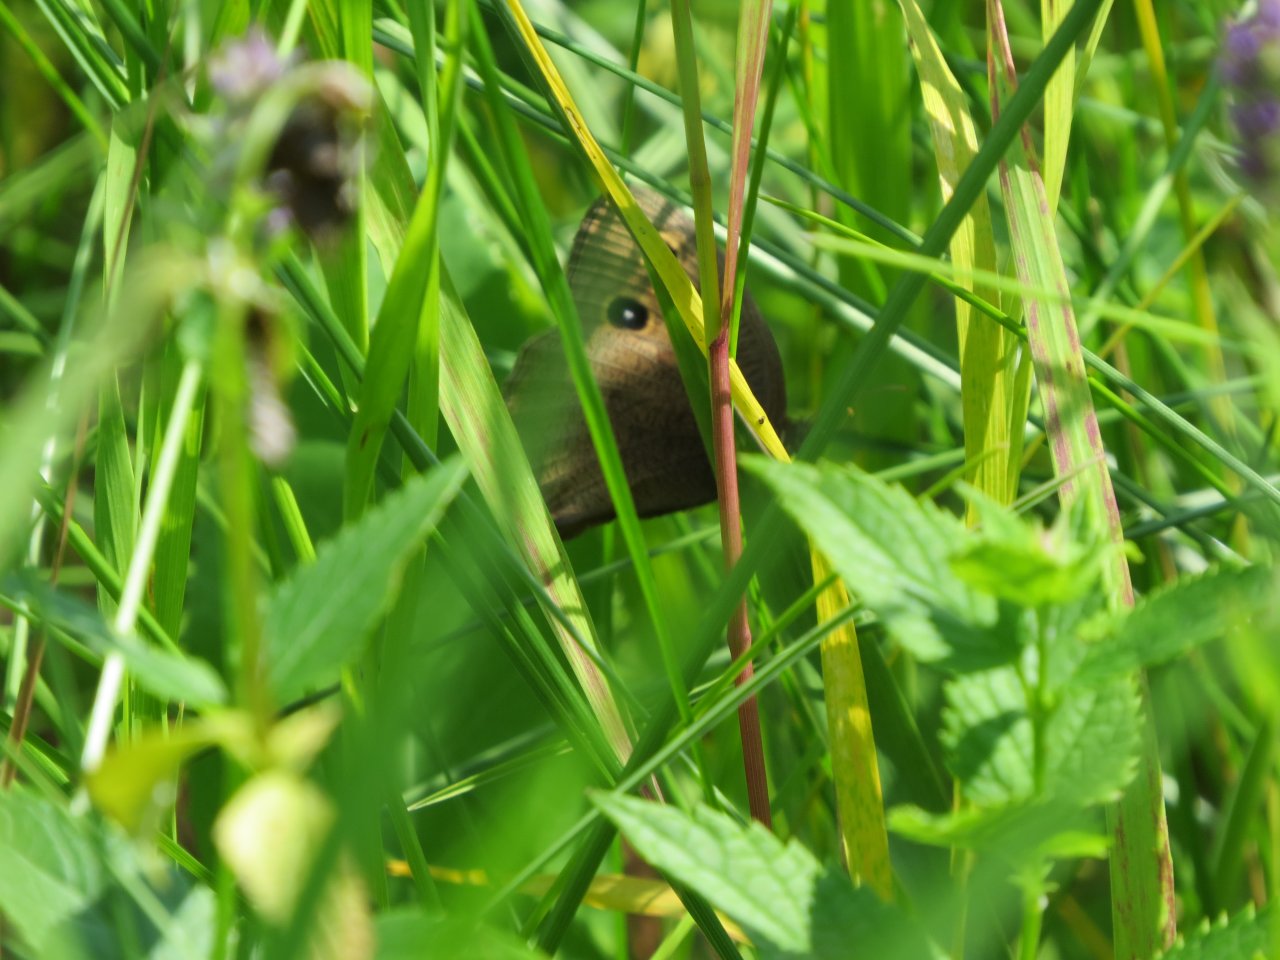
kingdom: Animalia
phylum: Arthropoda
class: Insecta
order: Lepidoptera
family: Nymphalidae
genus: Cercyonis
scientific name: Cercyonis pegala
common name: Common Wood-Nymph
